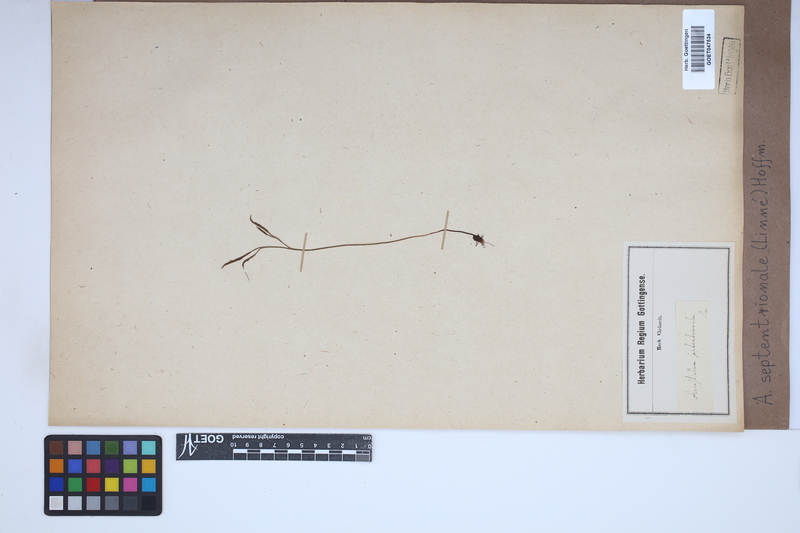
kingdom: Plantae
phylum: Tracheophyta
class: Polypodiopsida
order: Polypodiales
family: Aspleniaceae
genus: Asplenium
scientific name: Asplenium septentrionale
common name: Forked spleenwort
